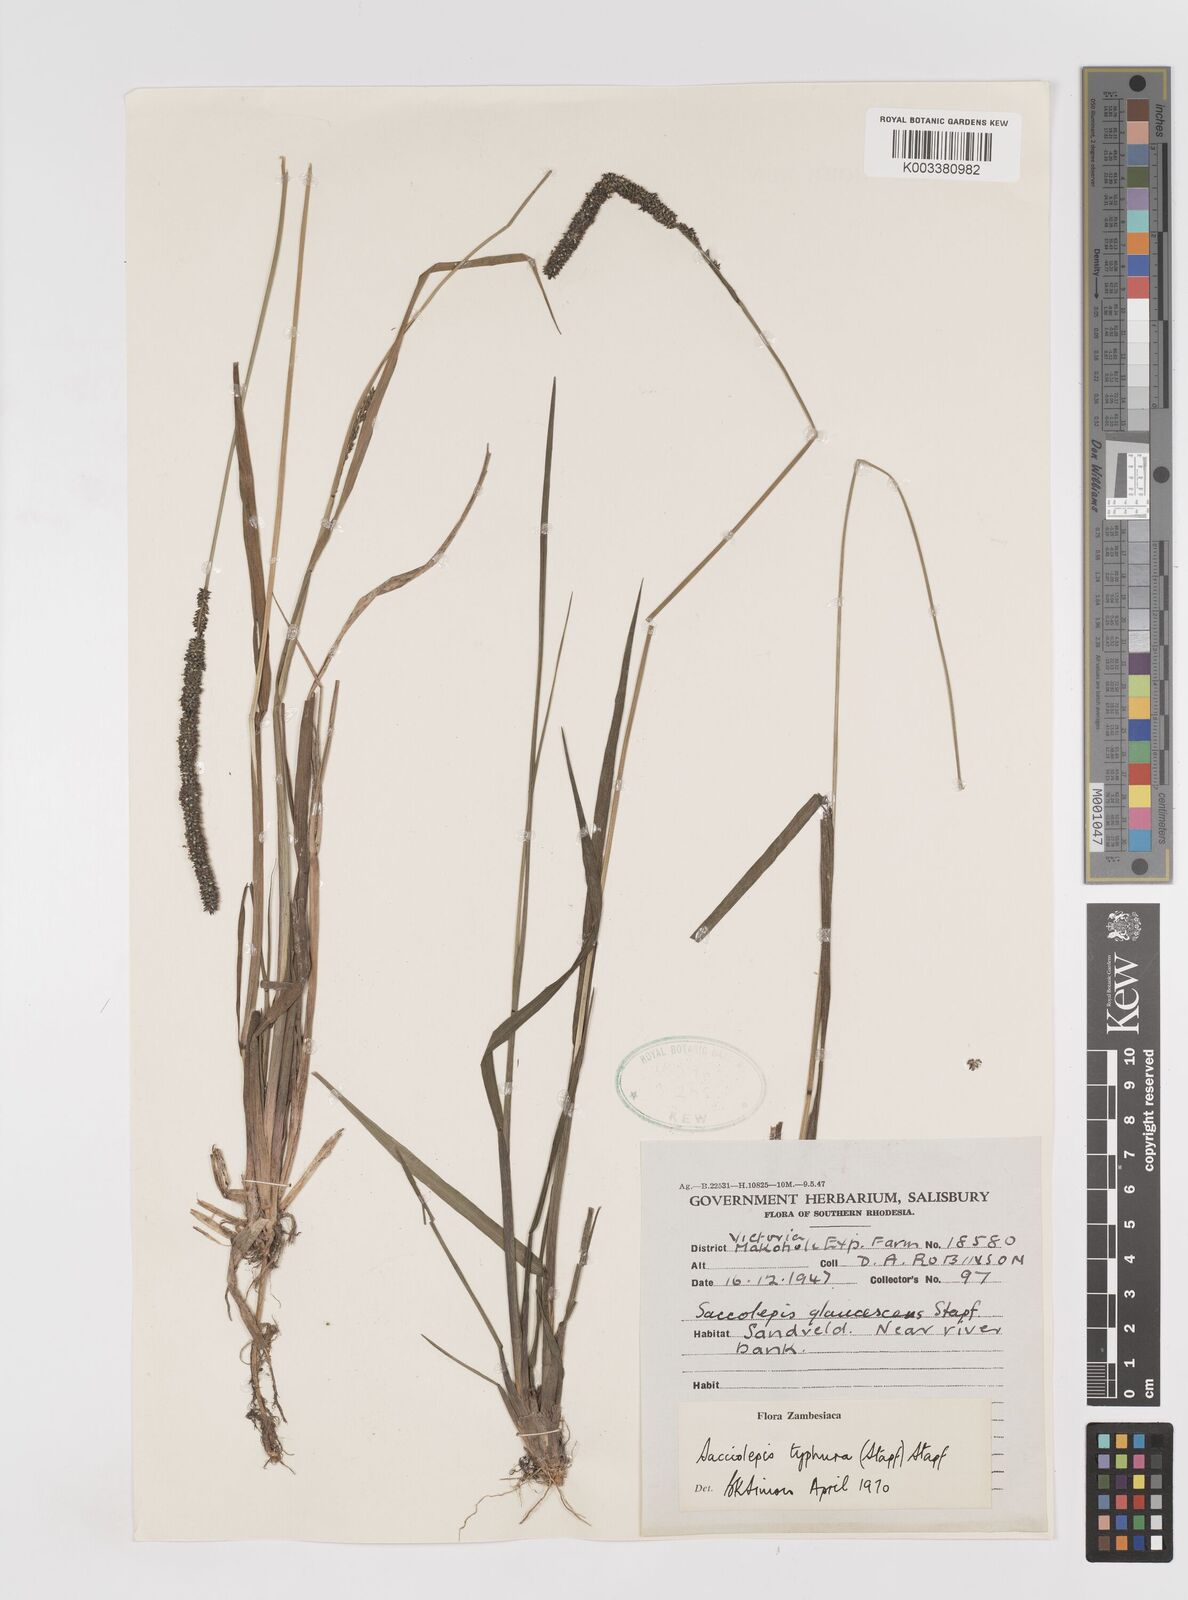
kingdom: Plantae
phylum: Tracheophyta
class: Liliopsida
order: Poales
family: Poaceae
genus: Sacciolepis
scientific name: Sacciolepis typhura
